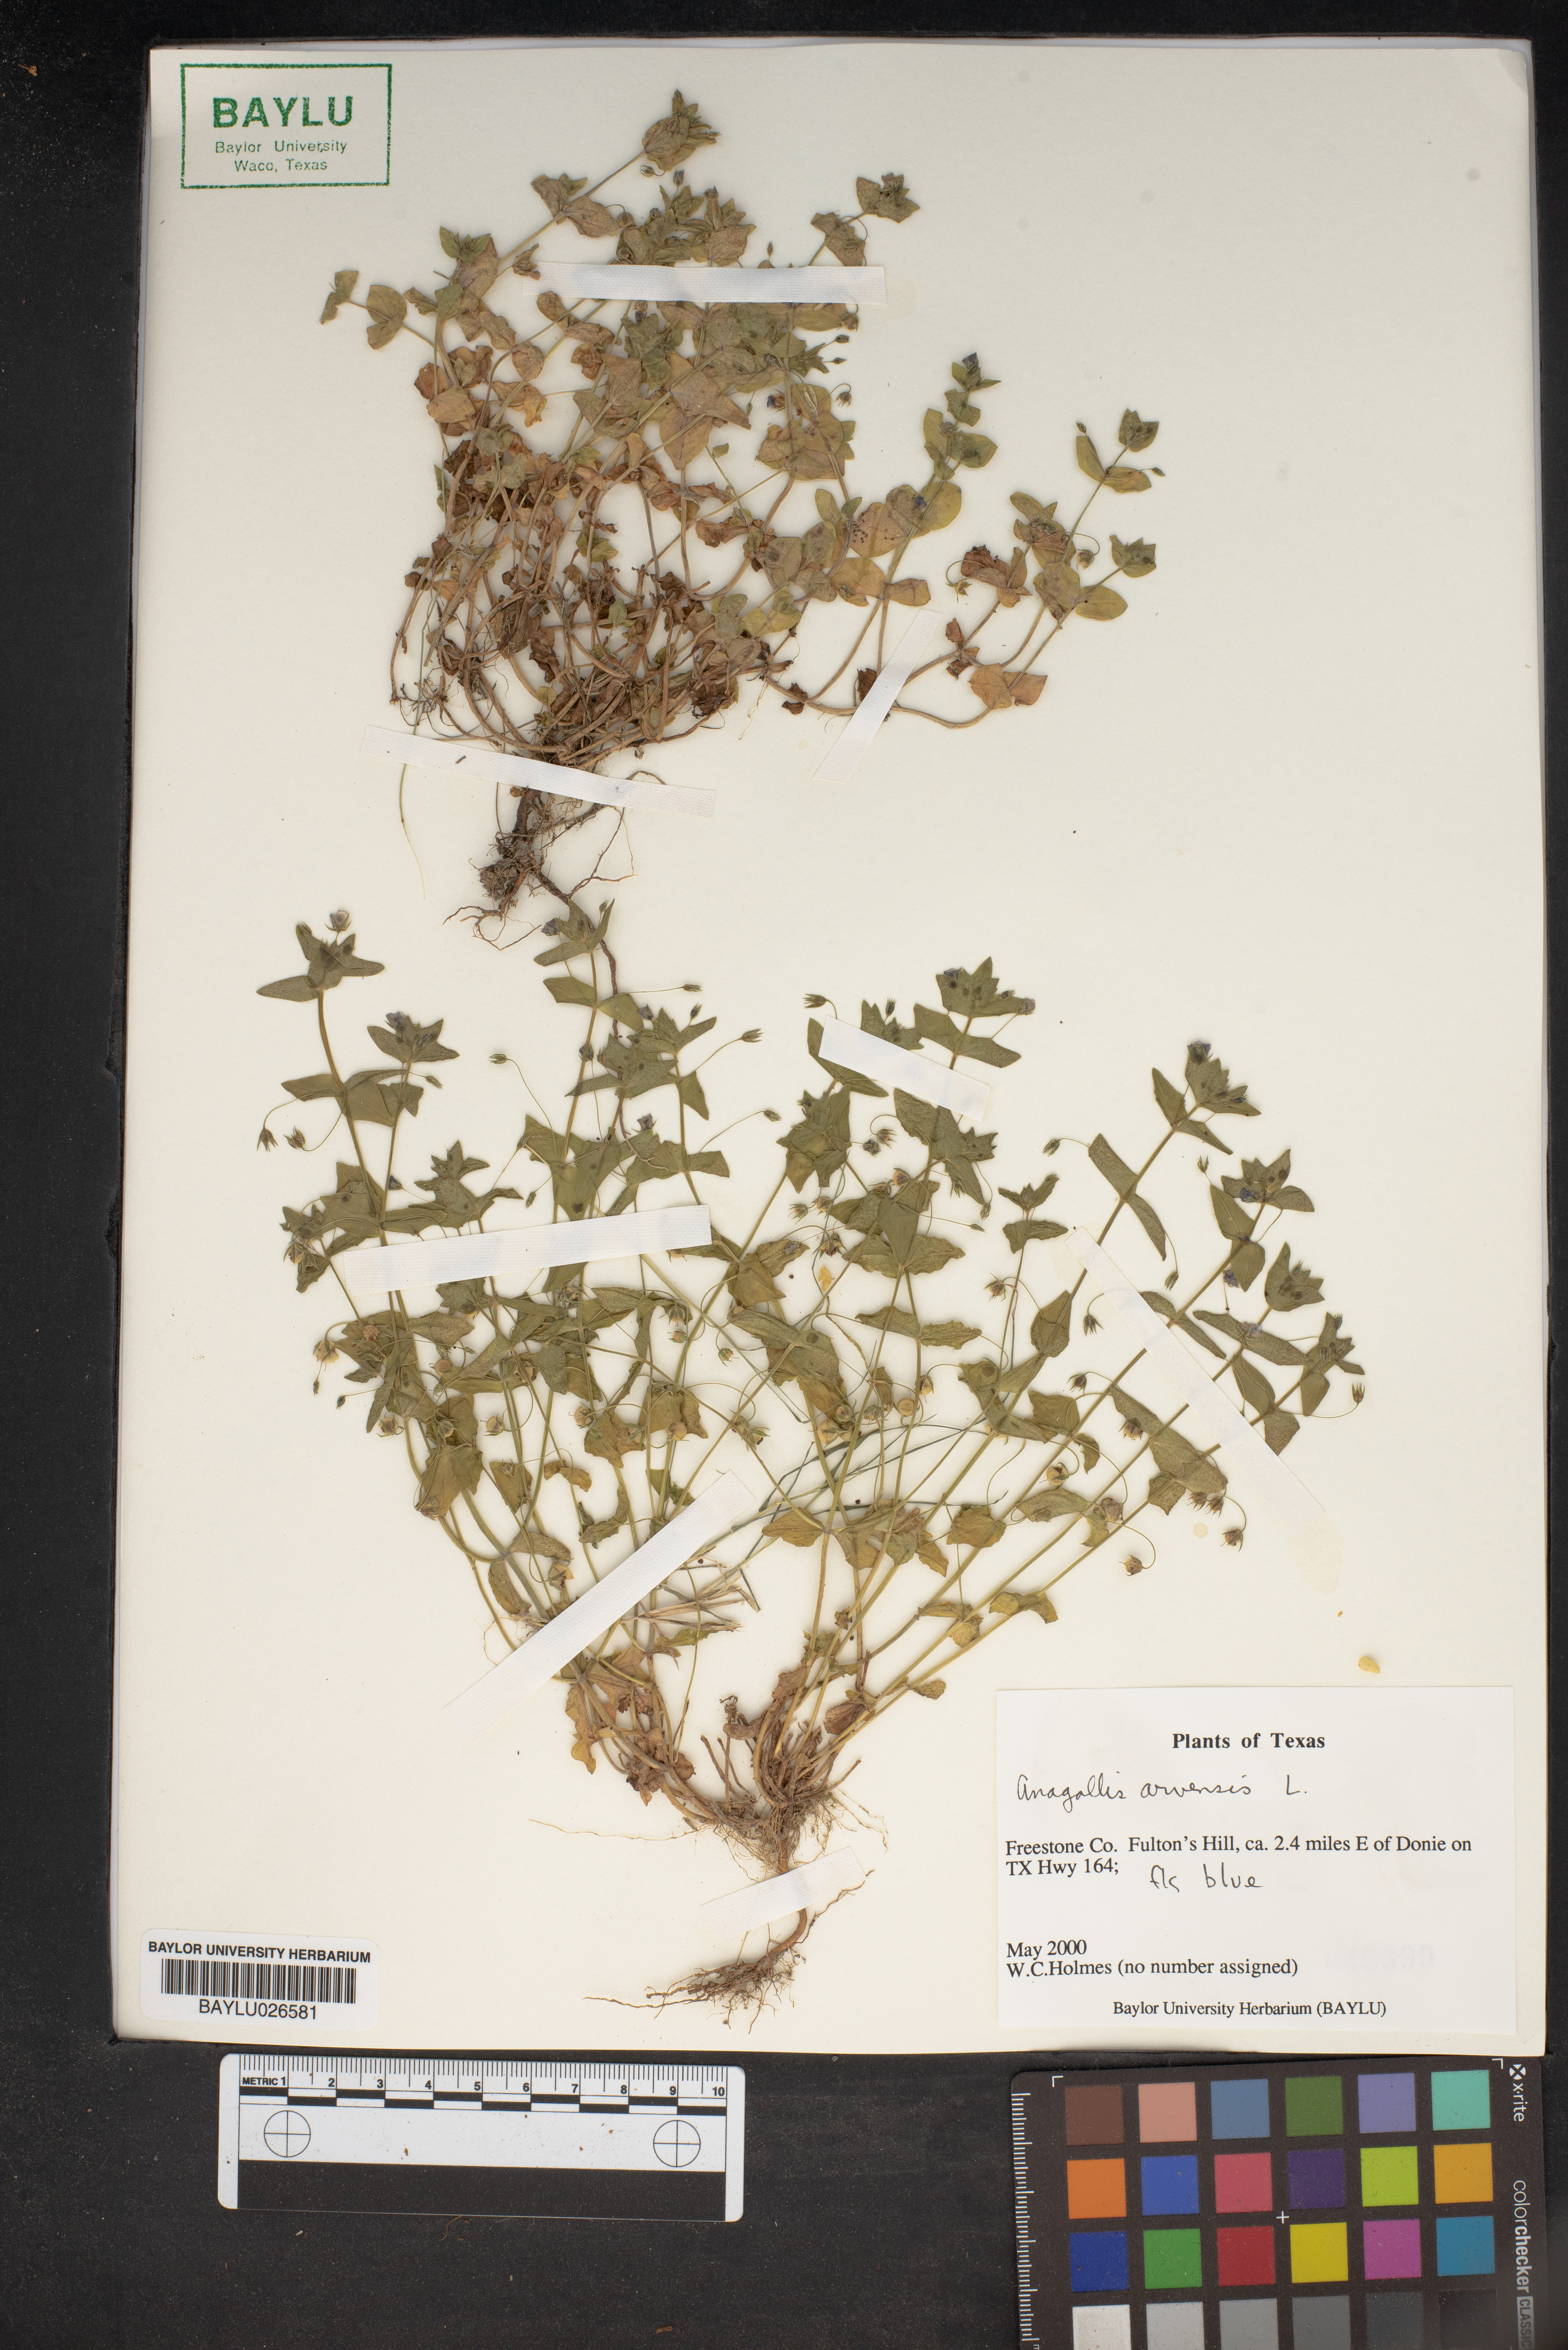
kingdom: Plantae
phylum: Tracheophyta
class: Magnoliopsida
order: Ericales
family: Primulaceae
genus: Lysimachia
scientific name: Lysimachia arvensis
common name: Scarlet pimpernel
